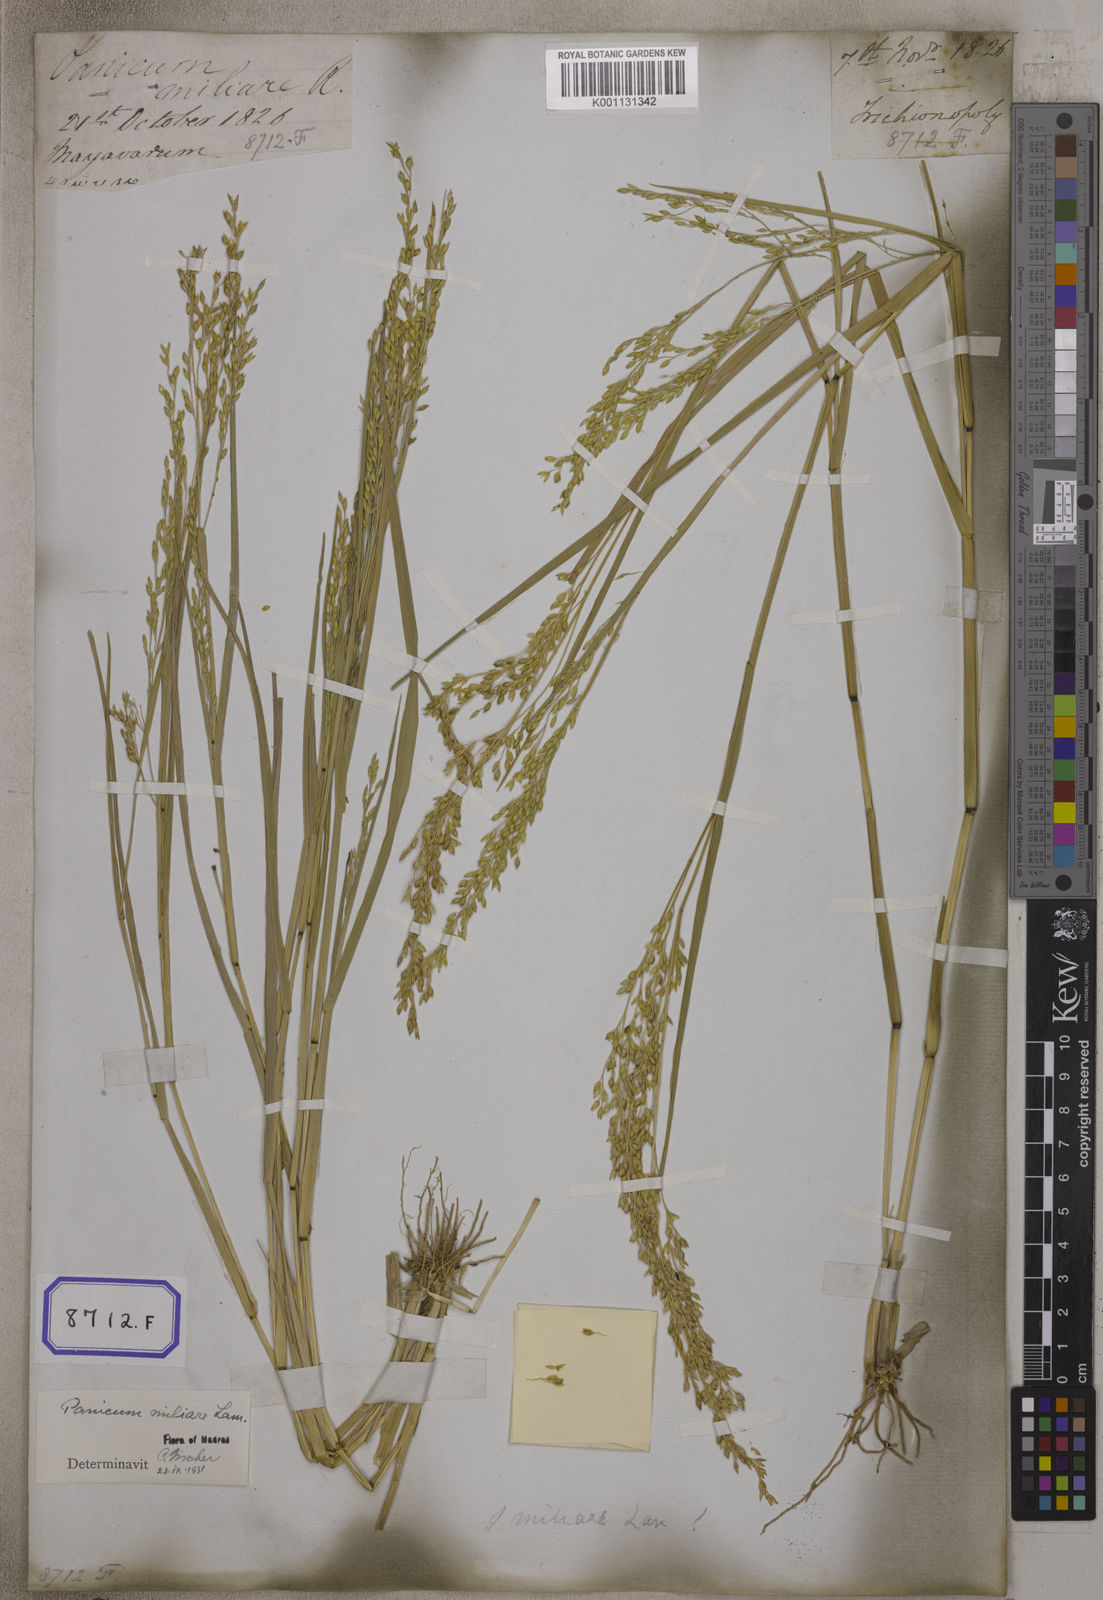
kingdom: Plantae
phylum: Tracheophyta
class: Liliopsida
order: Poales
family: Poaceae
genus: Panicum
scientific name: Panicum antidotale
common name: Blue panicum
